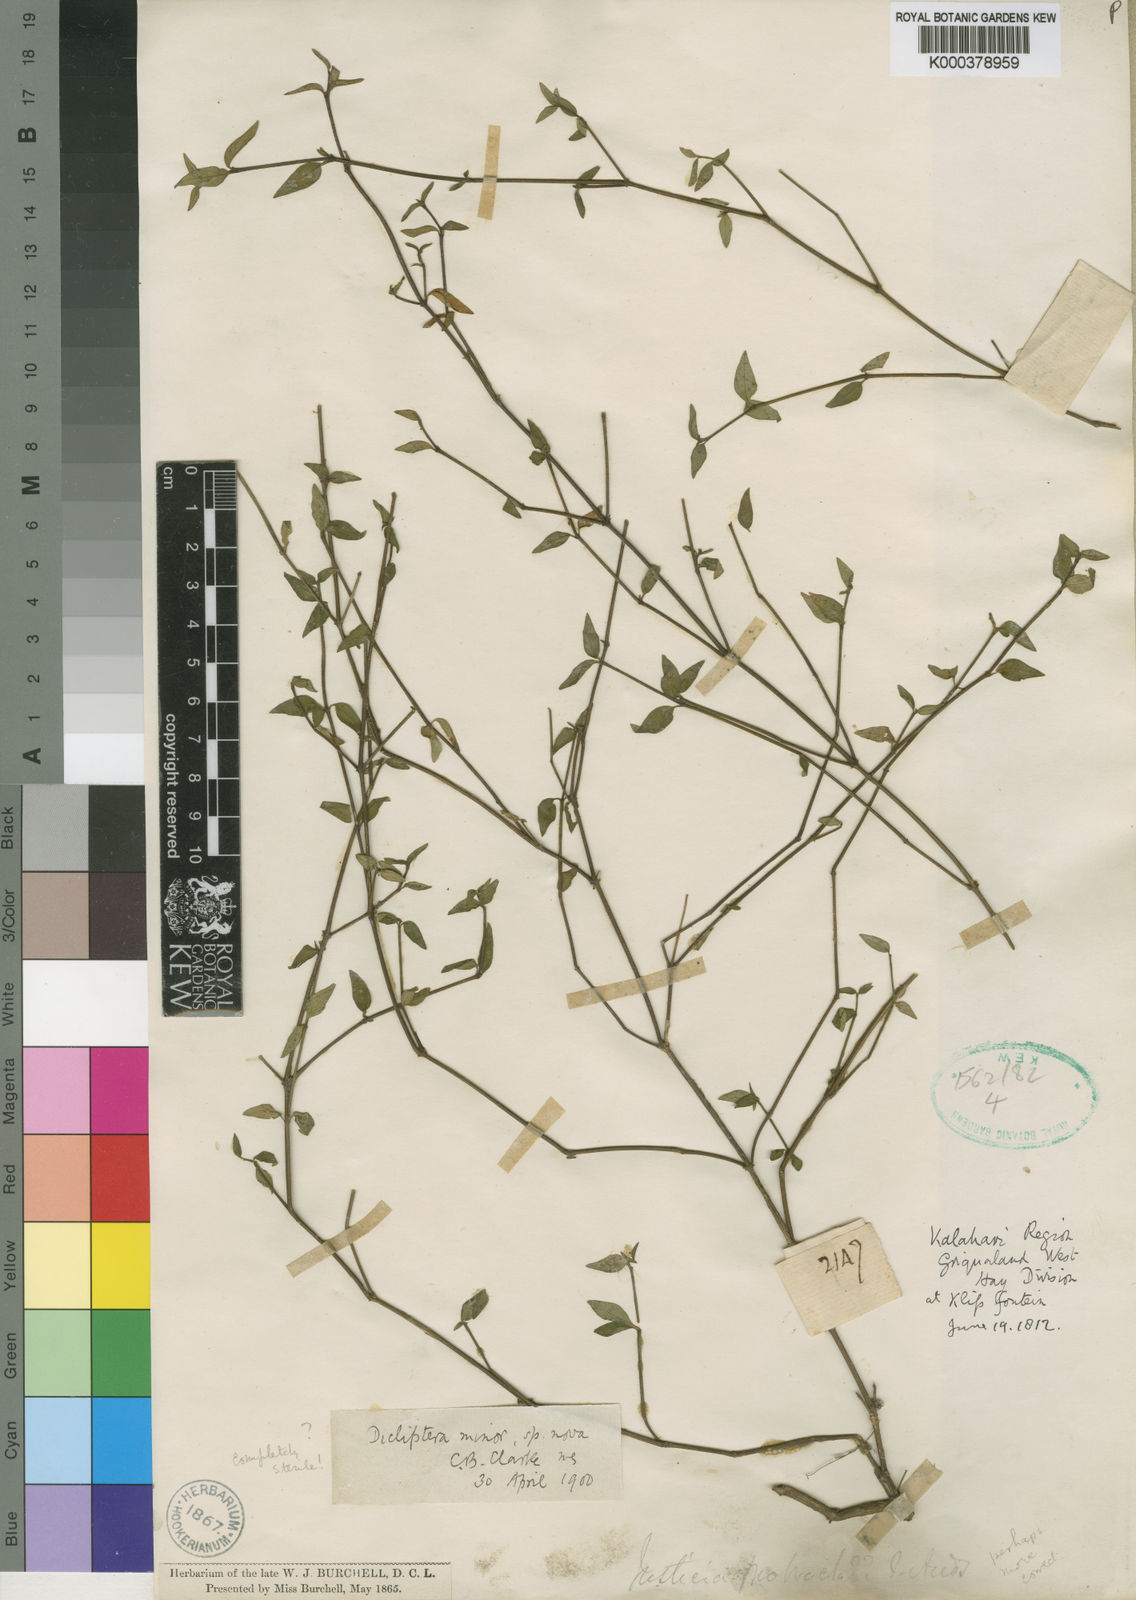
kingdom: Plantae
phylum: Tracheophyta
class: Magnoliopsida
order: Lamiales
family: Acanthaceae
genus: Dicliptera
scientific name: Dicliptera minor
